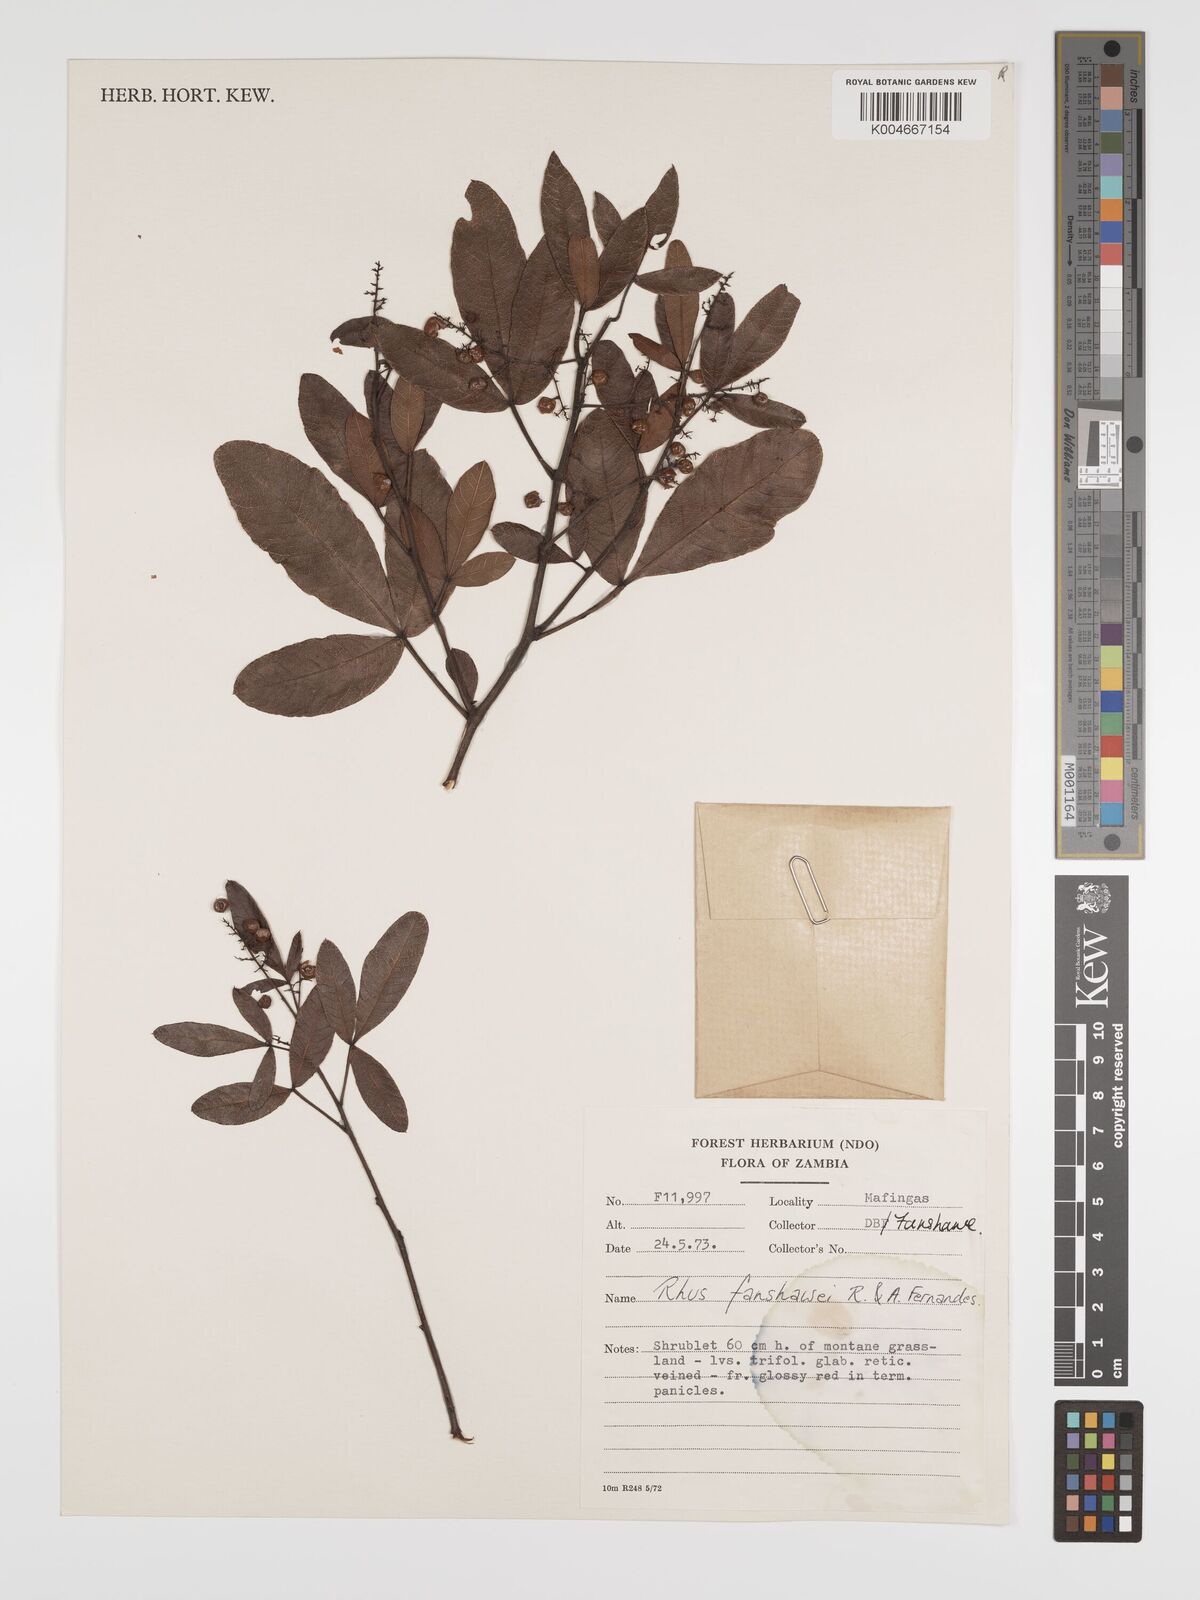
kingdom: Plantae
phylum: Tracheophyta
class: Magnoliopsida
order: Sapindales
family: Anacardiaceae
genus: Searsia
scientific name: Searsia magalismontana
